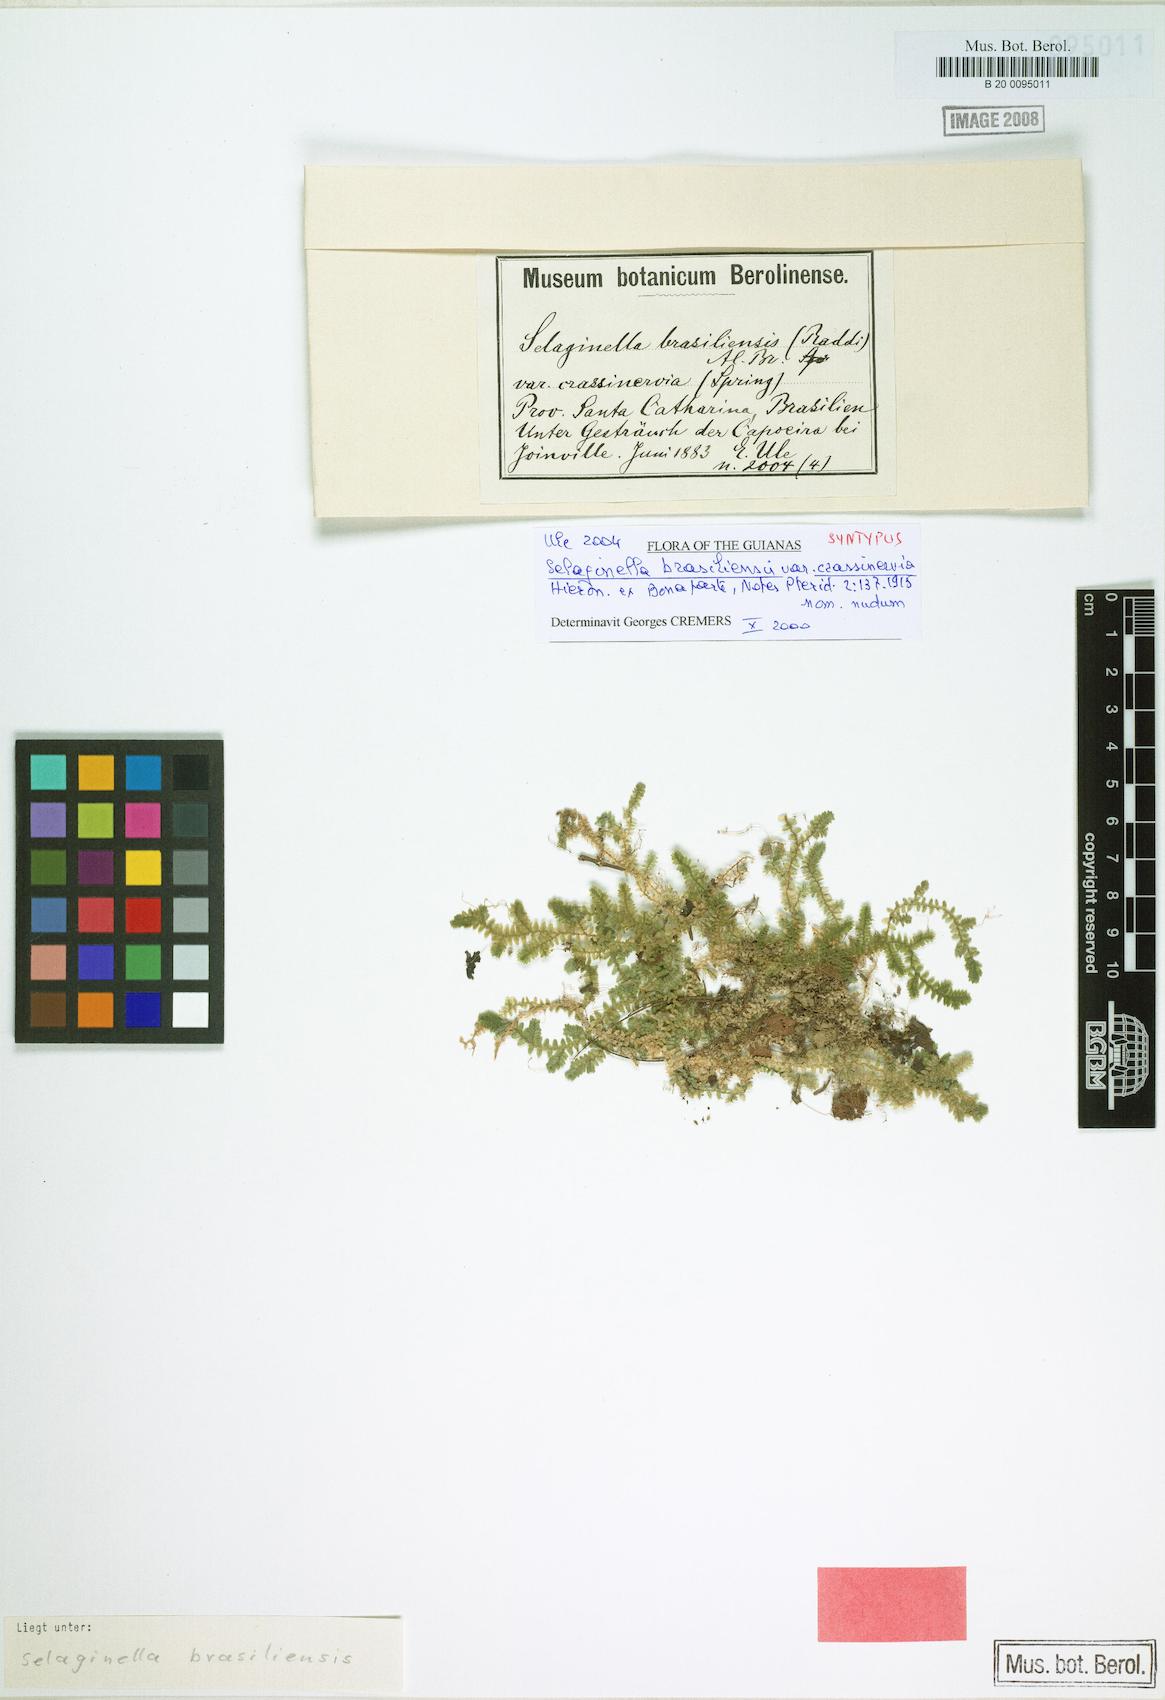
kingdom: Plantae
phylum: Tracheophyta
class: Lycopodiopsida
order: Selaginellales
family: Selaginellaceae
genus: Selaginella
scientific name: Selaginella muscosa
